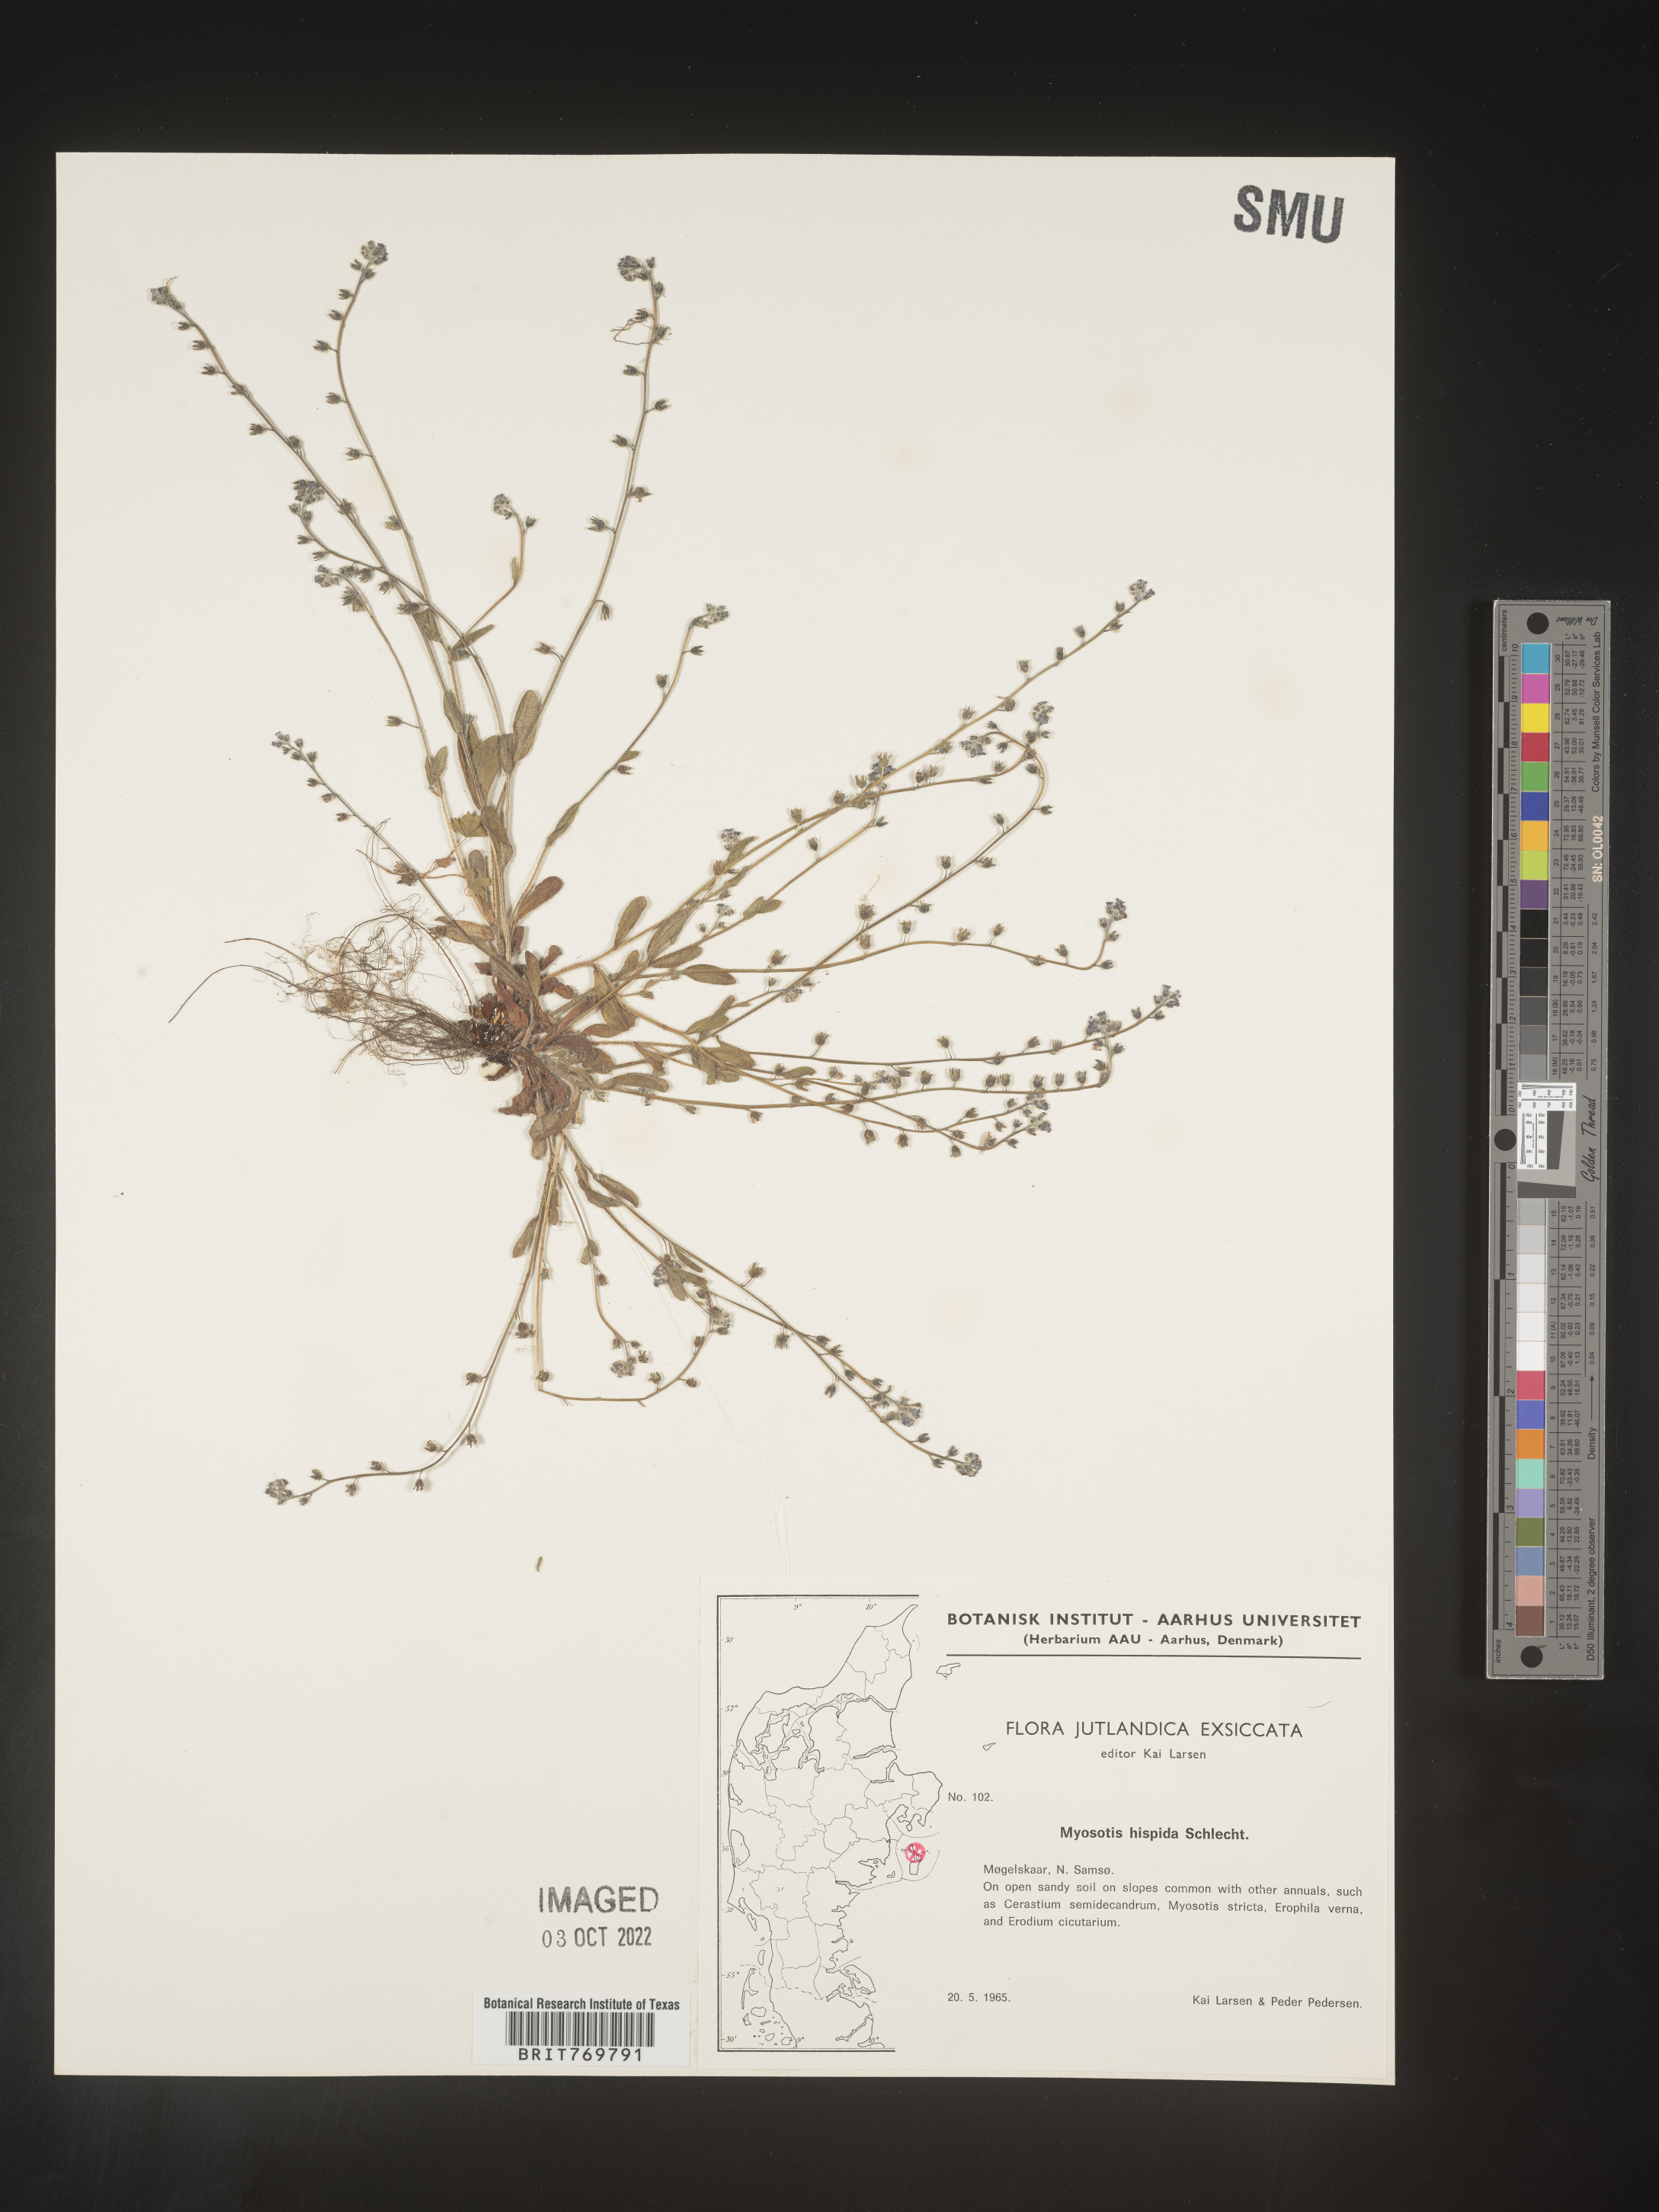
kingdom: Plantae
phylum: Tracheophyta
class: Magnoliopsida
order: Boraginales
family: Boraginaceae
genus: Myosotis
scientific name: Myosotis
